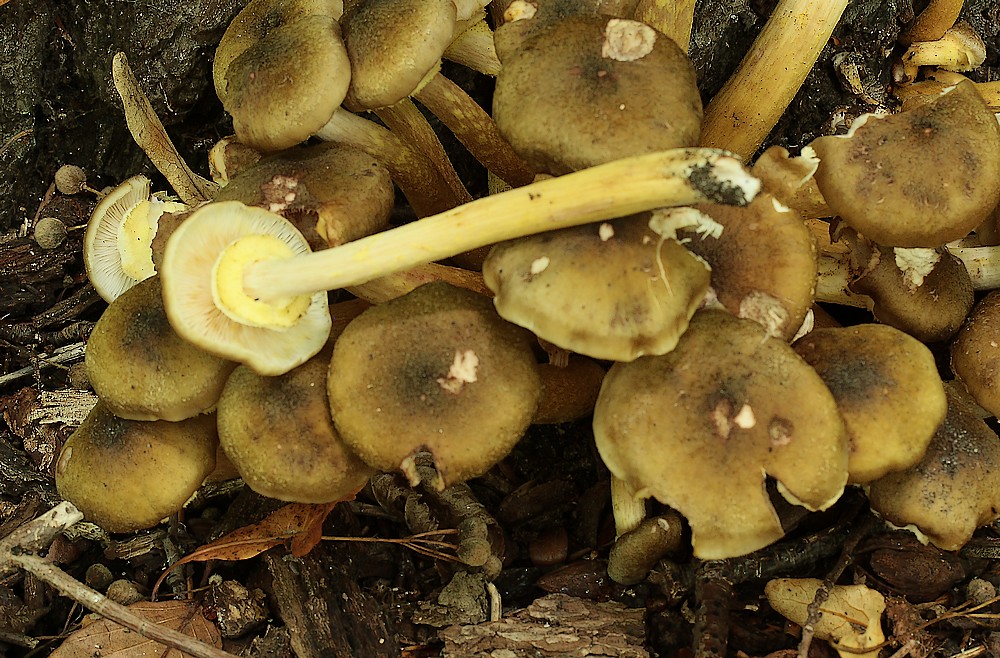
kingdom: Fungi
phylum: Basidiomycota
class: Agaricomycetes
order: Agaricales
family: Physalacriaceae
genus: Armillaria
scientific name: Armillaria mellea
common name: ægte honningsvamp
